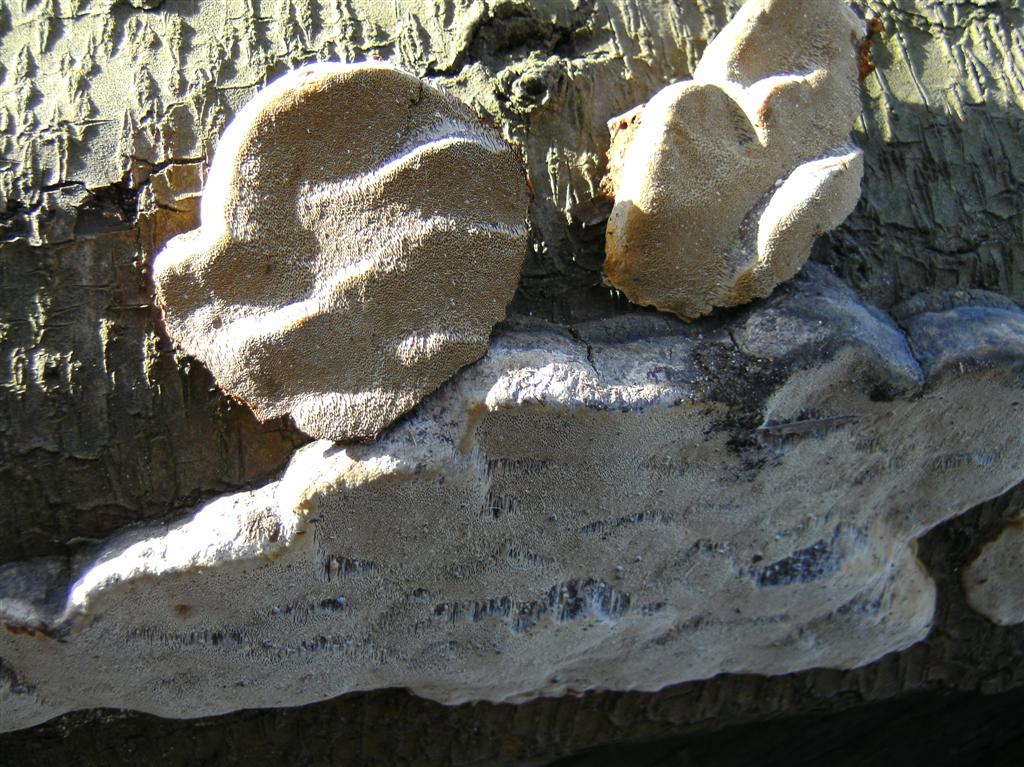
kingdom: Fungi
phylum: Basidiomycota
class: Agaricomycetes
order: Hymenochaetales
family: Hymenochaetaceae
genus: Phellinus
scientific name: Phellinus pomaceus
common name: blomme-ildporesvamp
